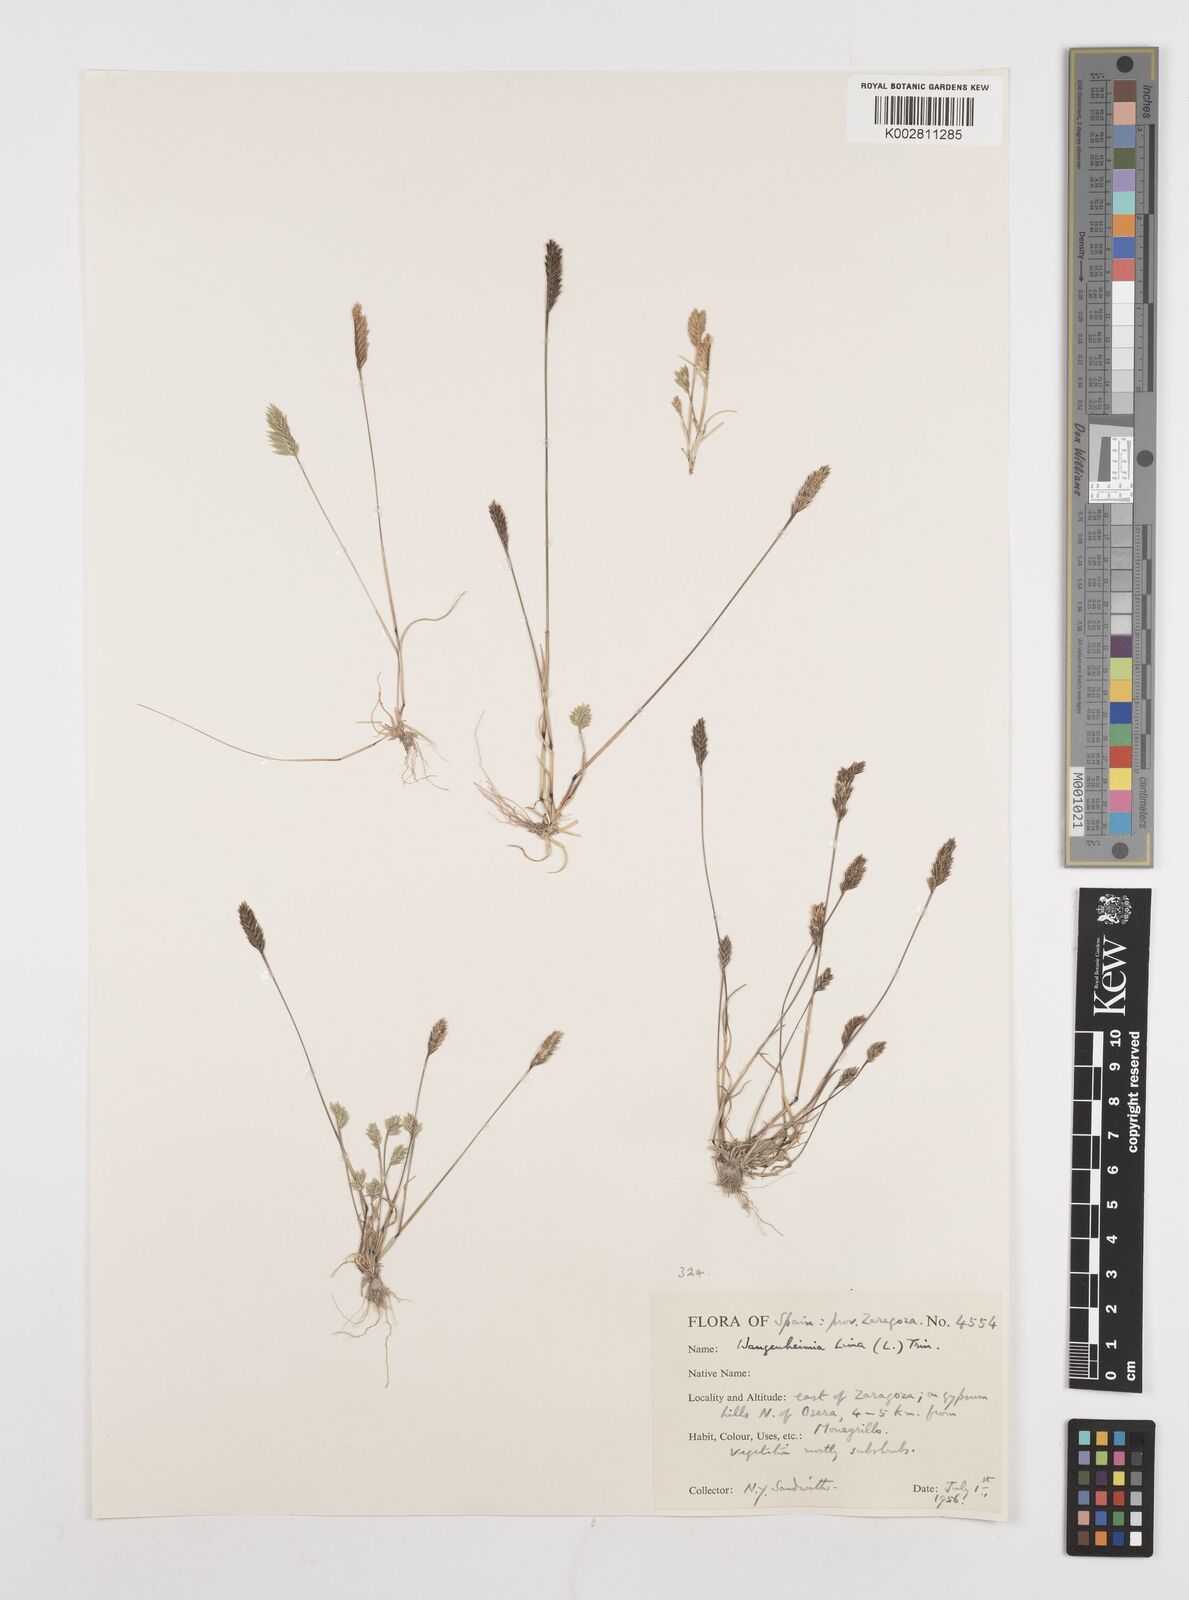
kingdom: Plantae
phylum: Tracheophyta
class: Liliopsida
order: Poales
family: Poaceae
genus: Wangenheimia
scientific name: Wangenheimia lima
